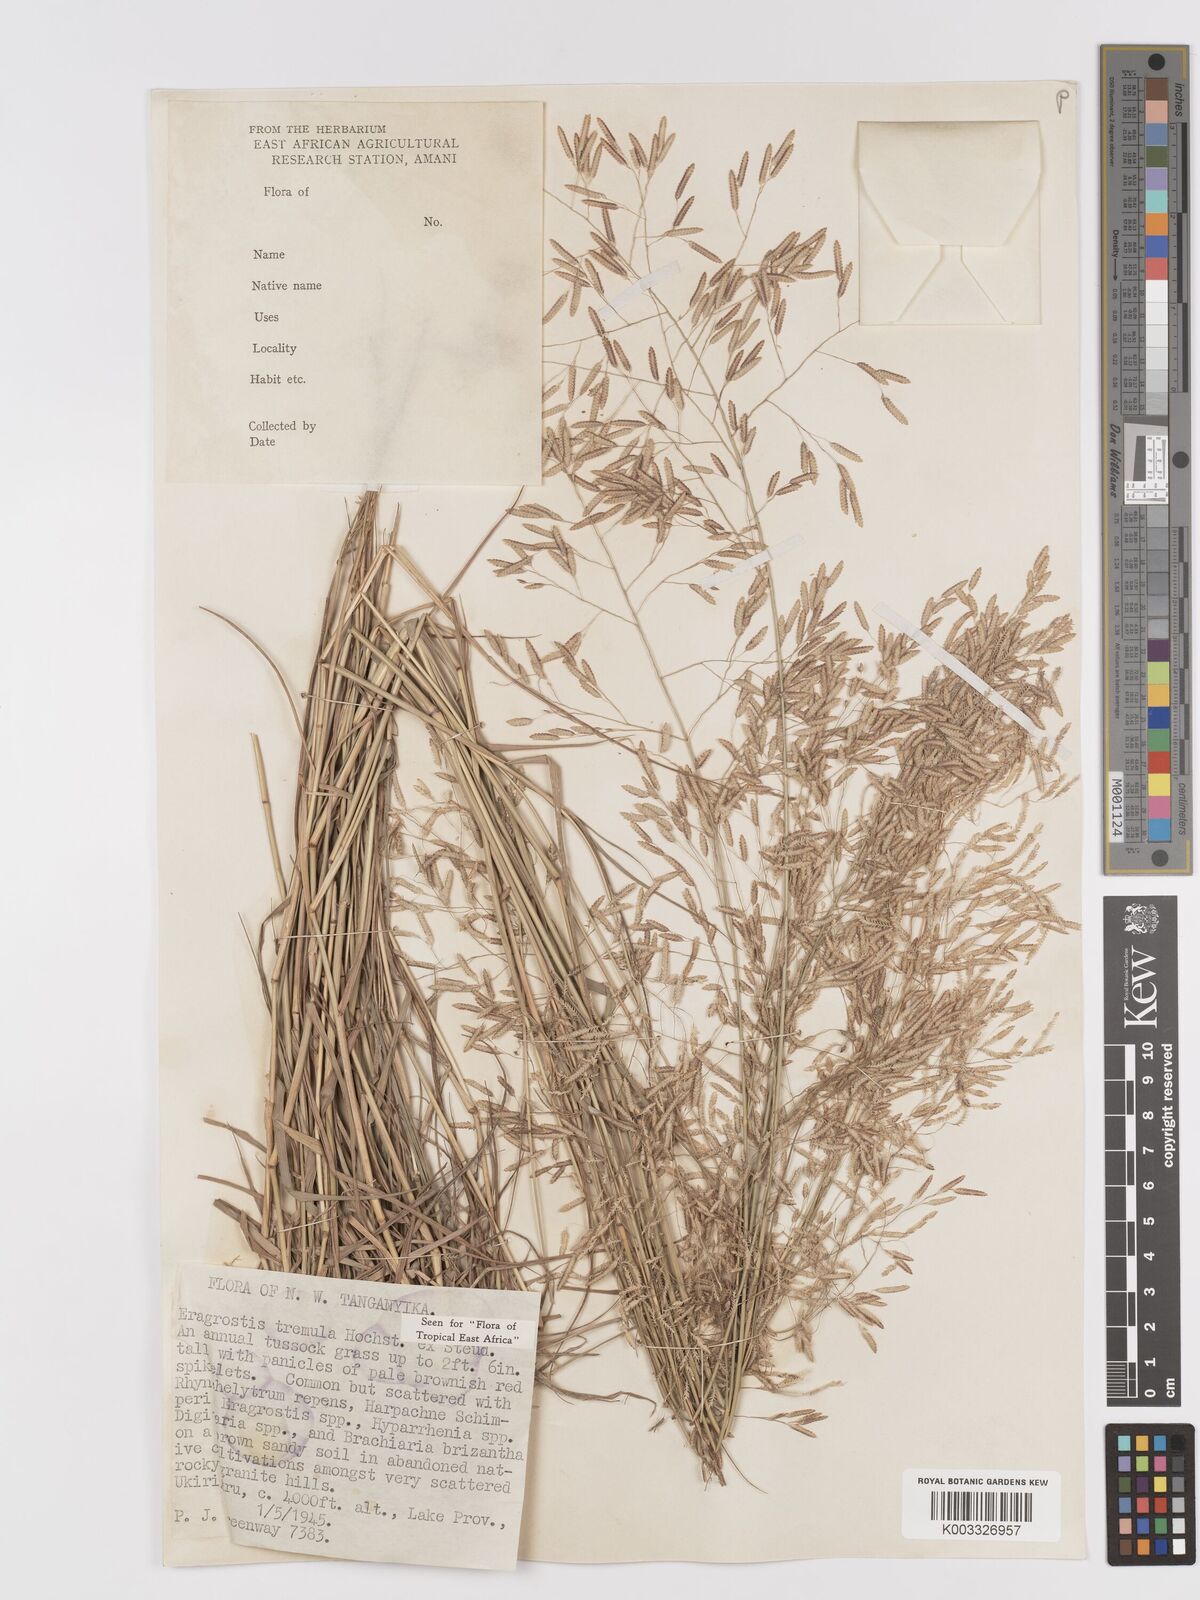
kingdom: Plantae
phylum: Tracheophyta
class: Liliopsida
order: Poales
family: Poaceae
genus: Eragrostis
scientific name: Eragrostis tremula
